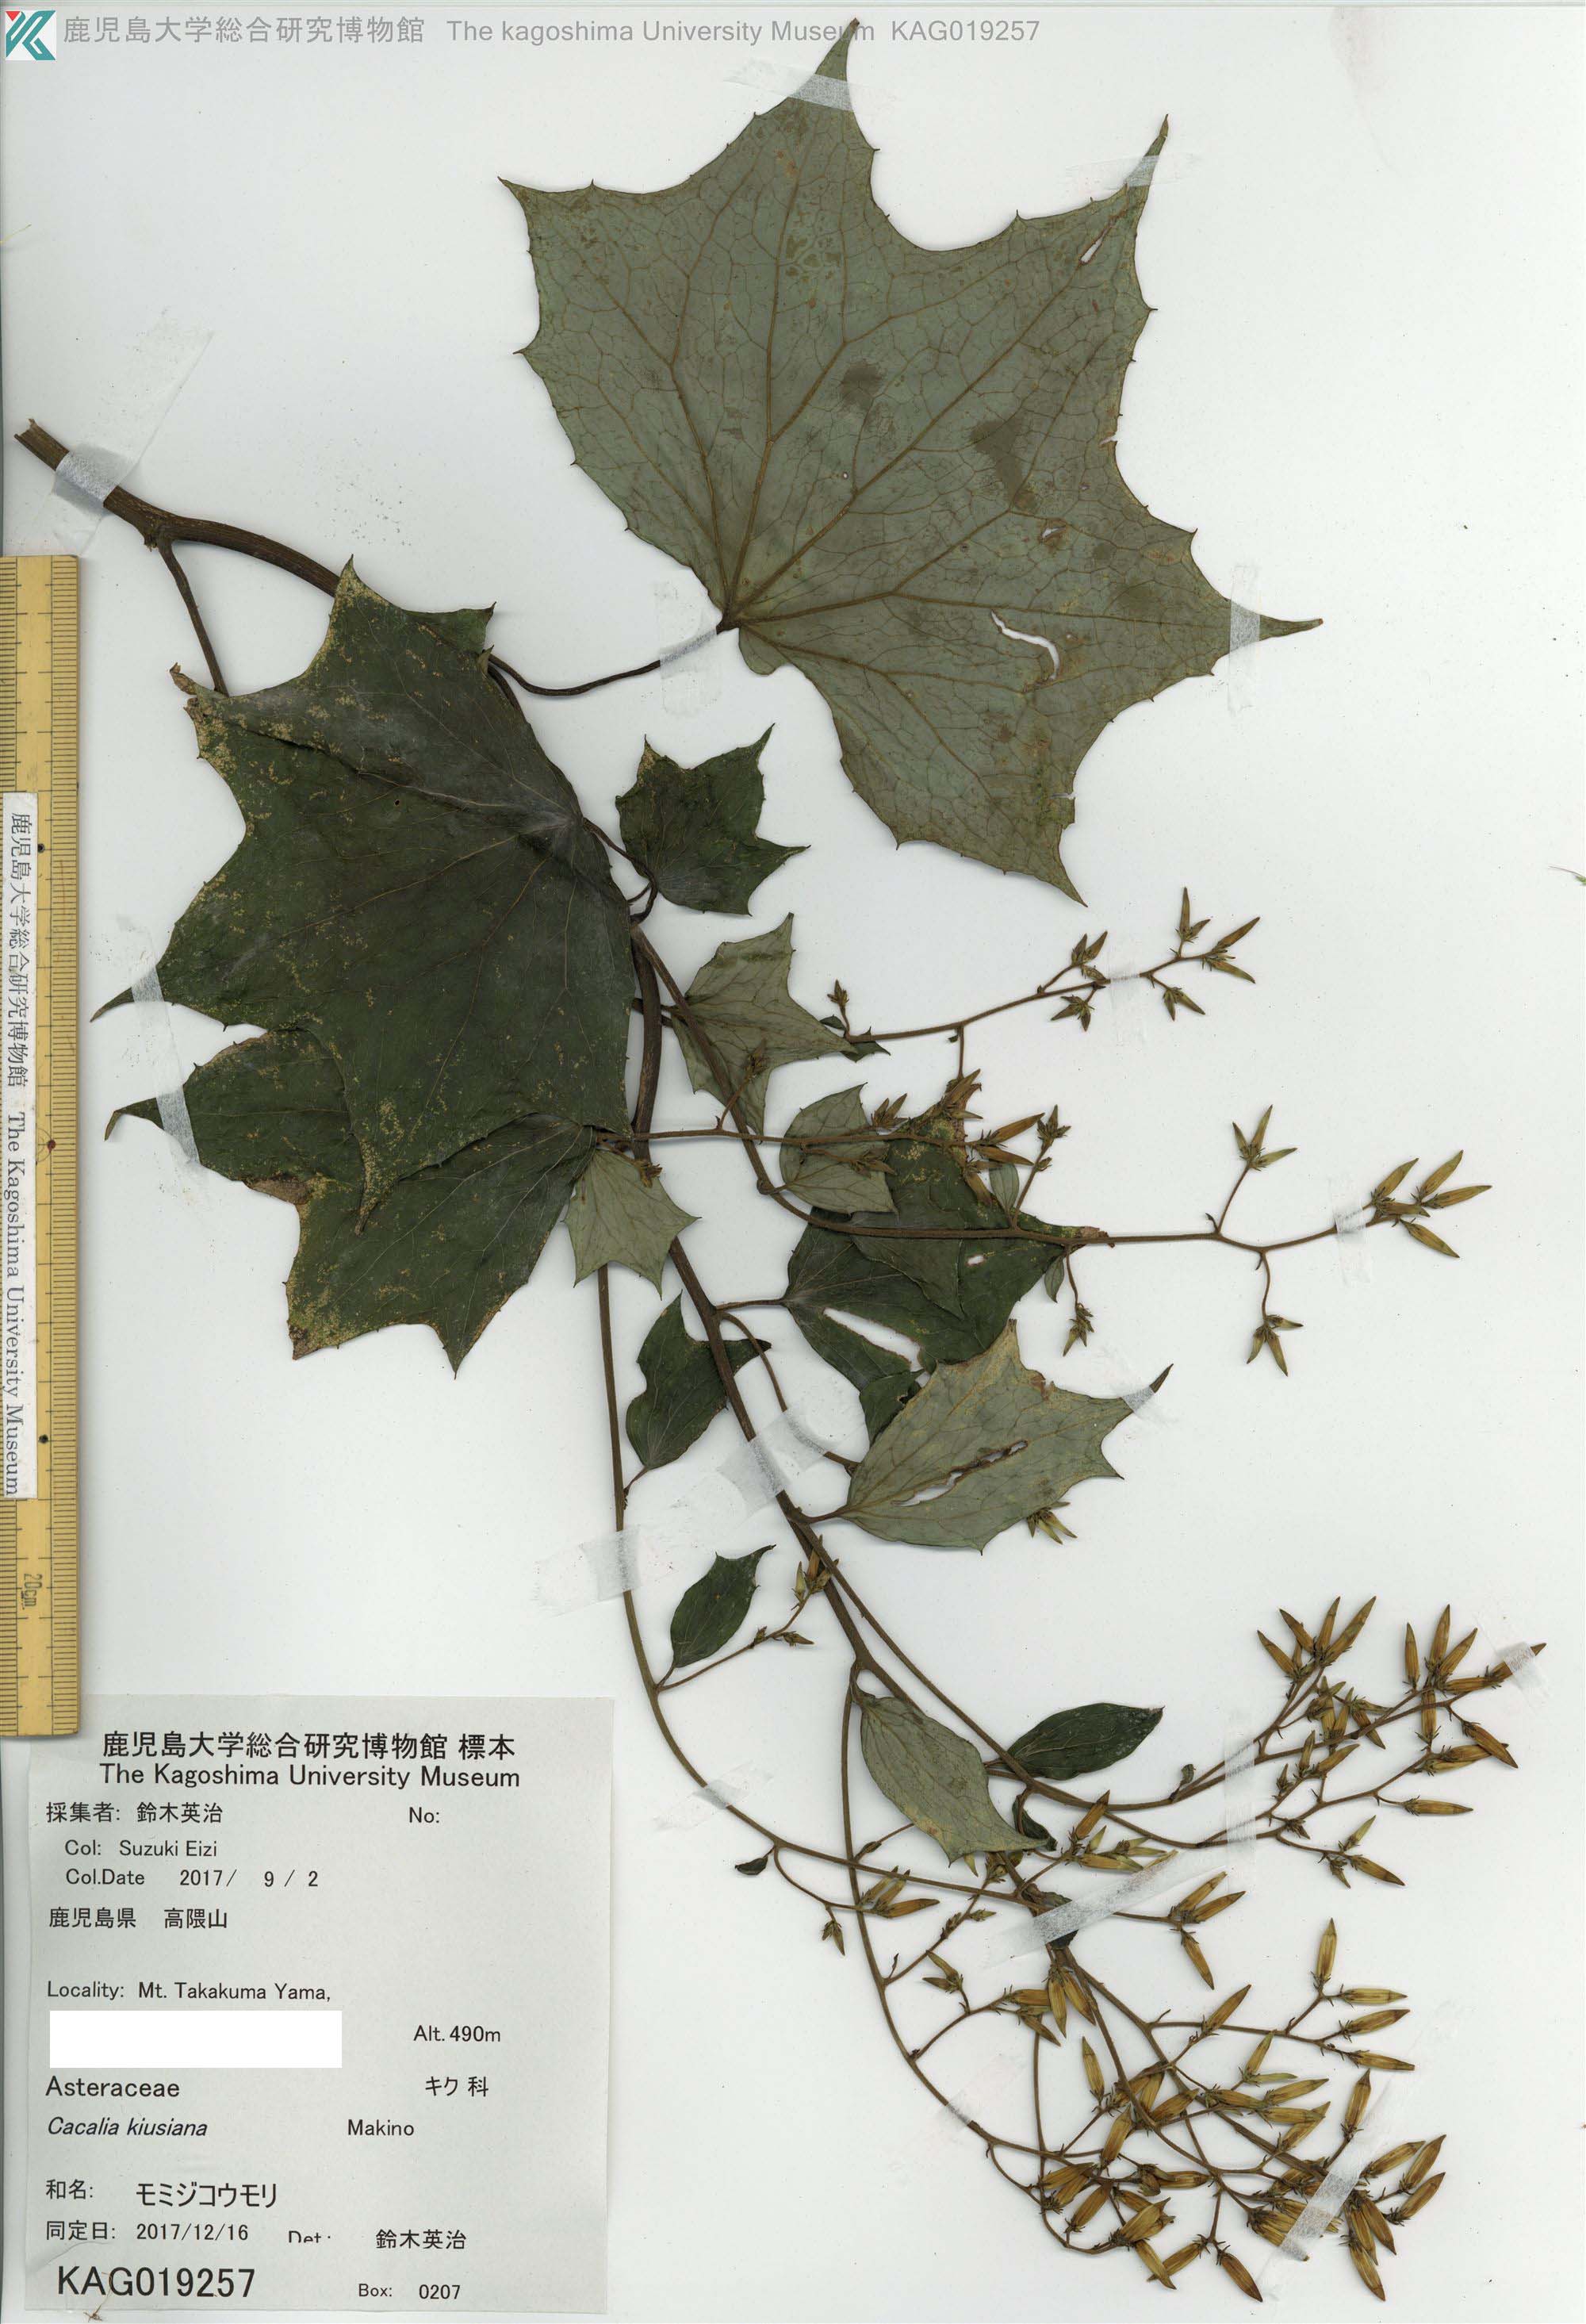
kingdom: Plantae
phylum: Tracheophyta
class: Magnoliopsida
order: Asterales
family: Asteraceae
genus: Japonicalia
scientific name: Japonicalia kiusiana
